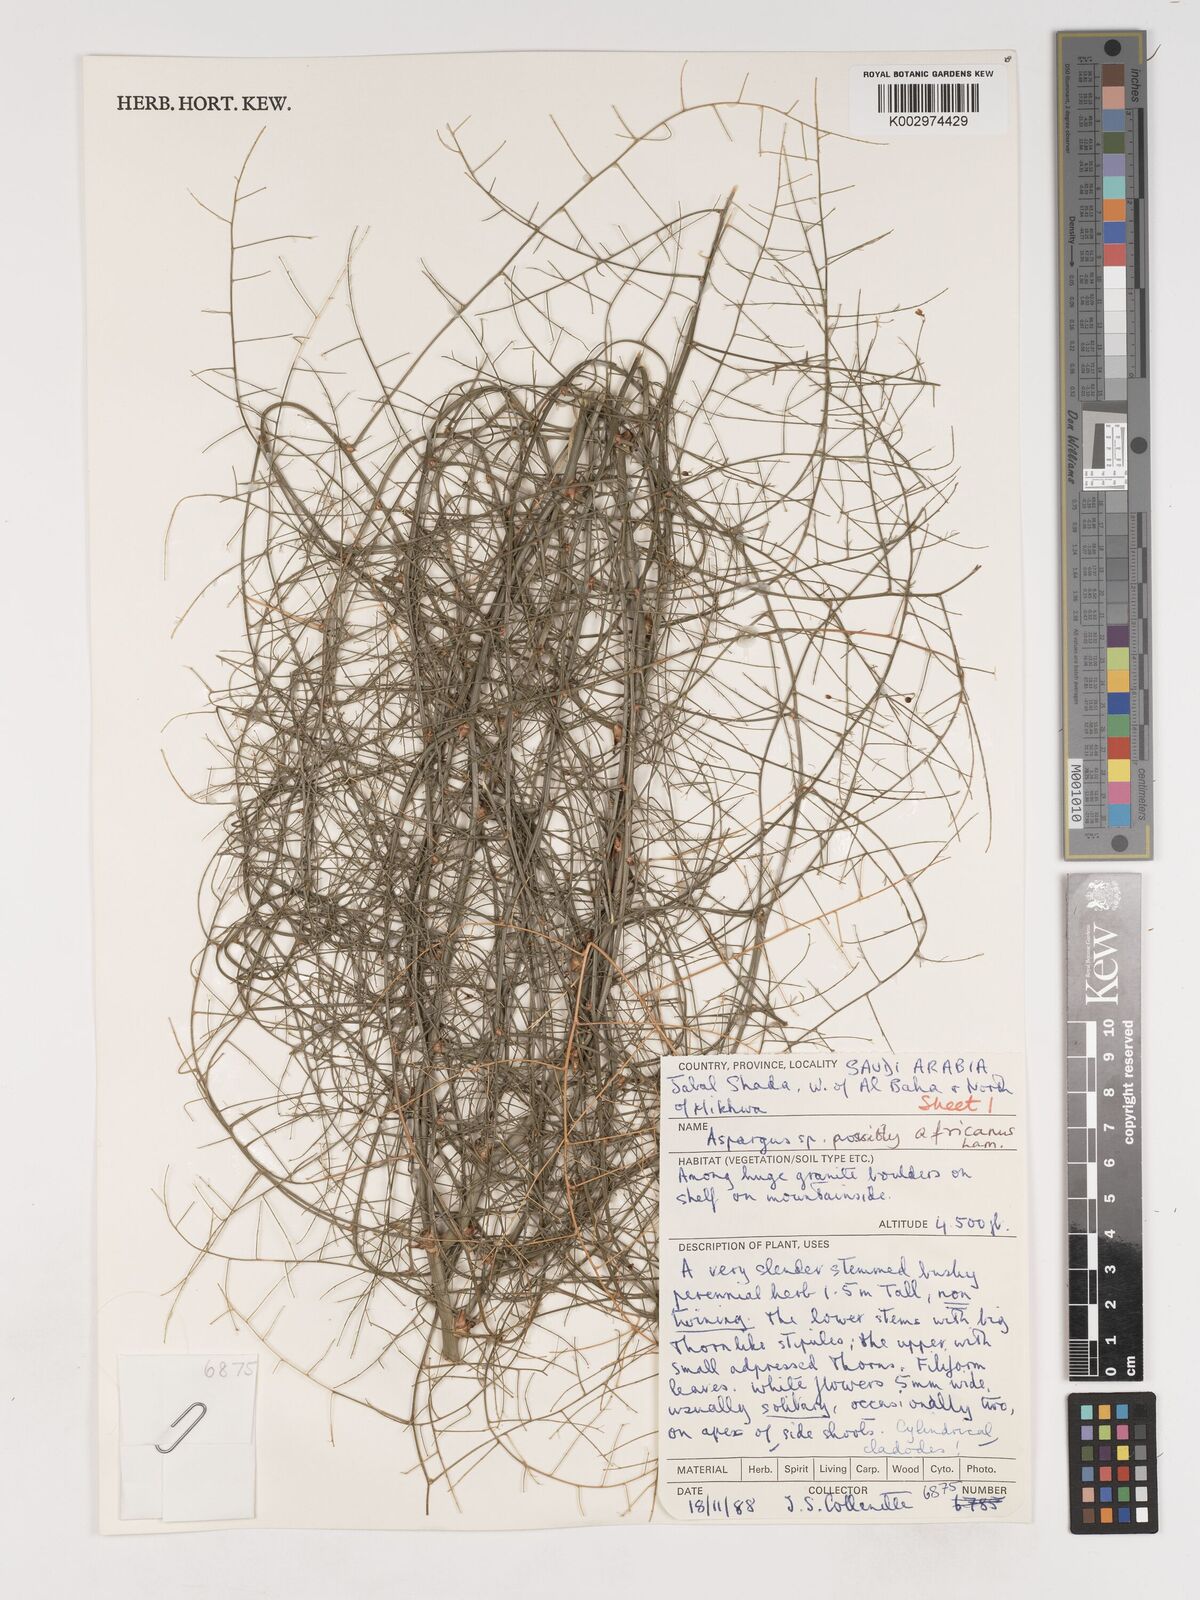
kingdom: Plantae
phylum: Tracheophyta
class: Liliopsida
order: Asparagales
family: Asparagaceae
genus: Asparagus
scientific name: Asparagus africanus
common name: Asparagus-fern
